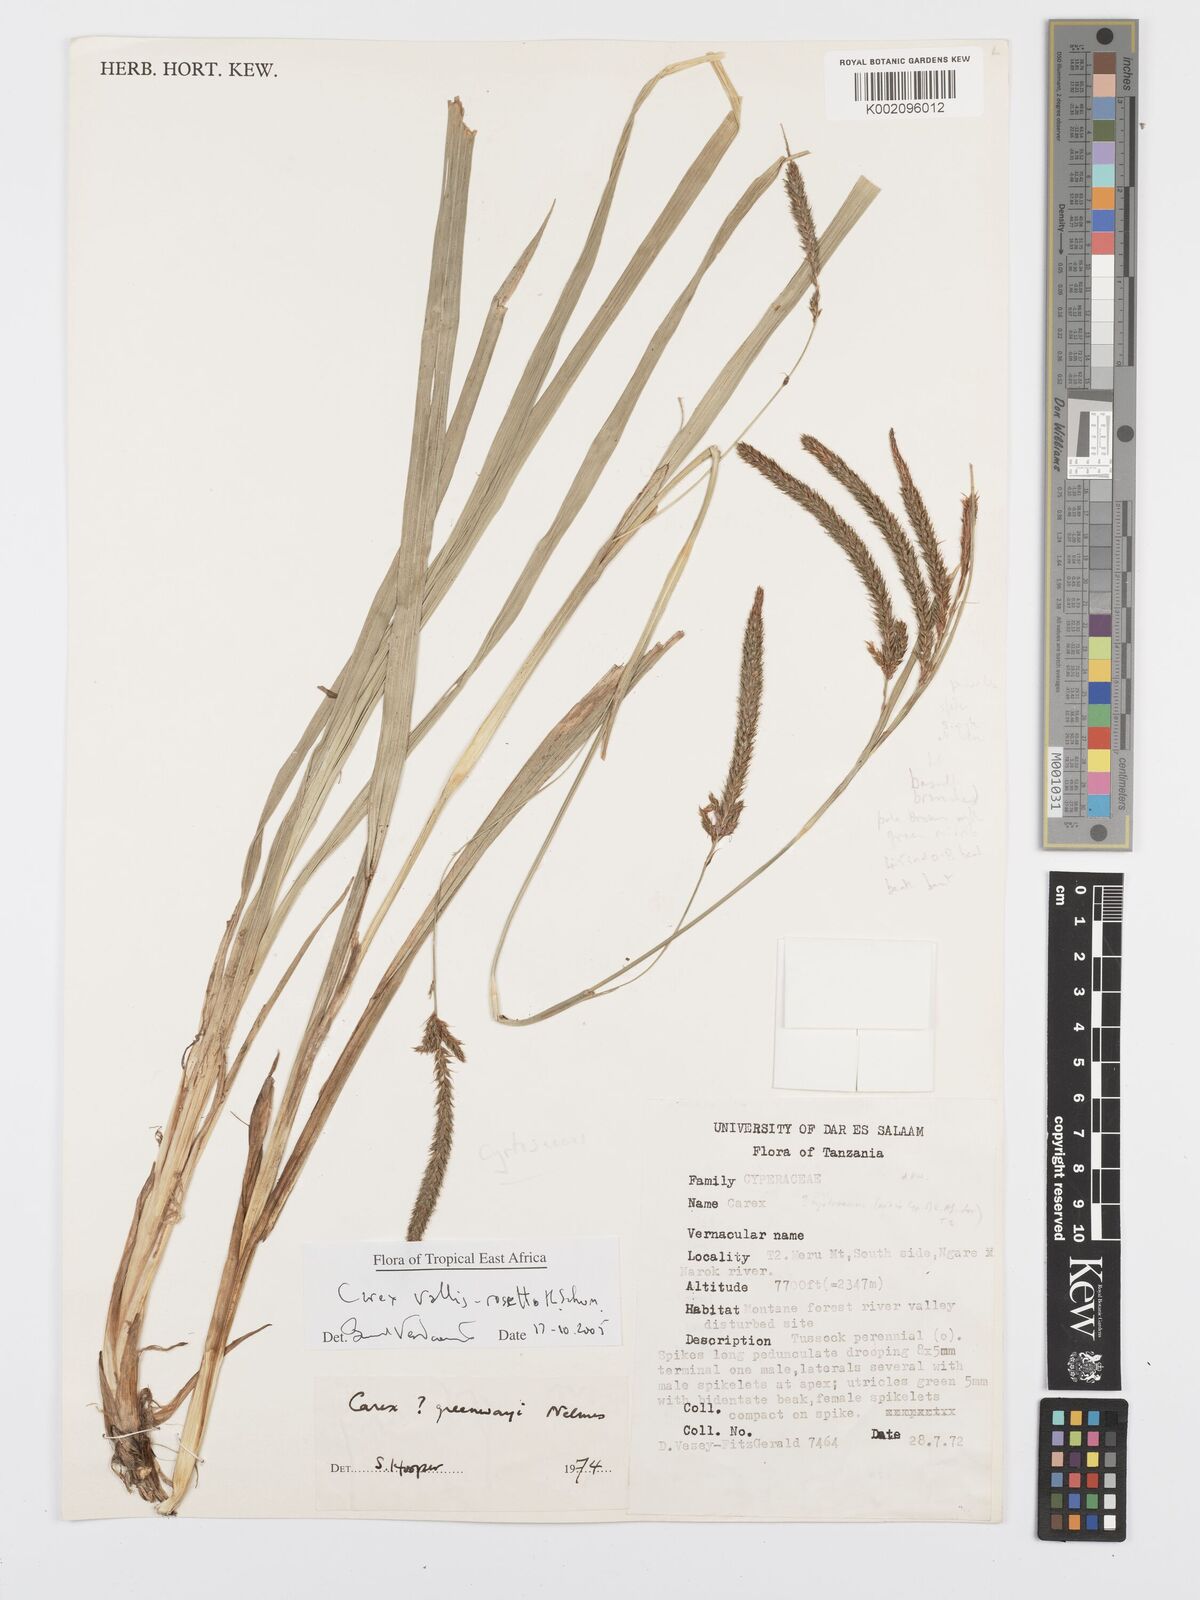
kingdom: Plantae
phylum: Tracheophyta
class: Liliopsida
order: Poales
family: Cyperaceae
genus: Carex
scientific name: Carex vallis-rosetto
